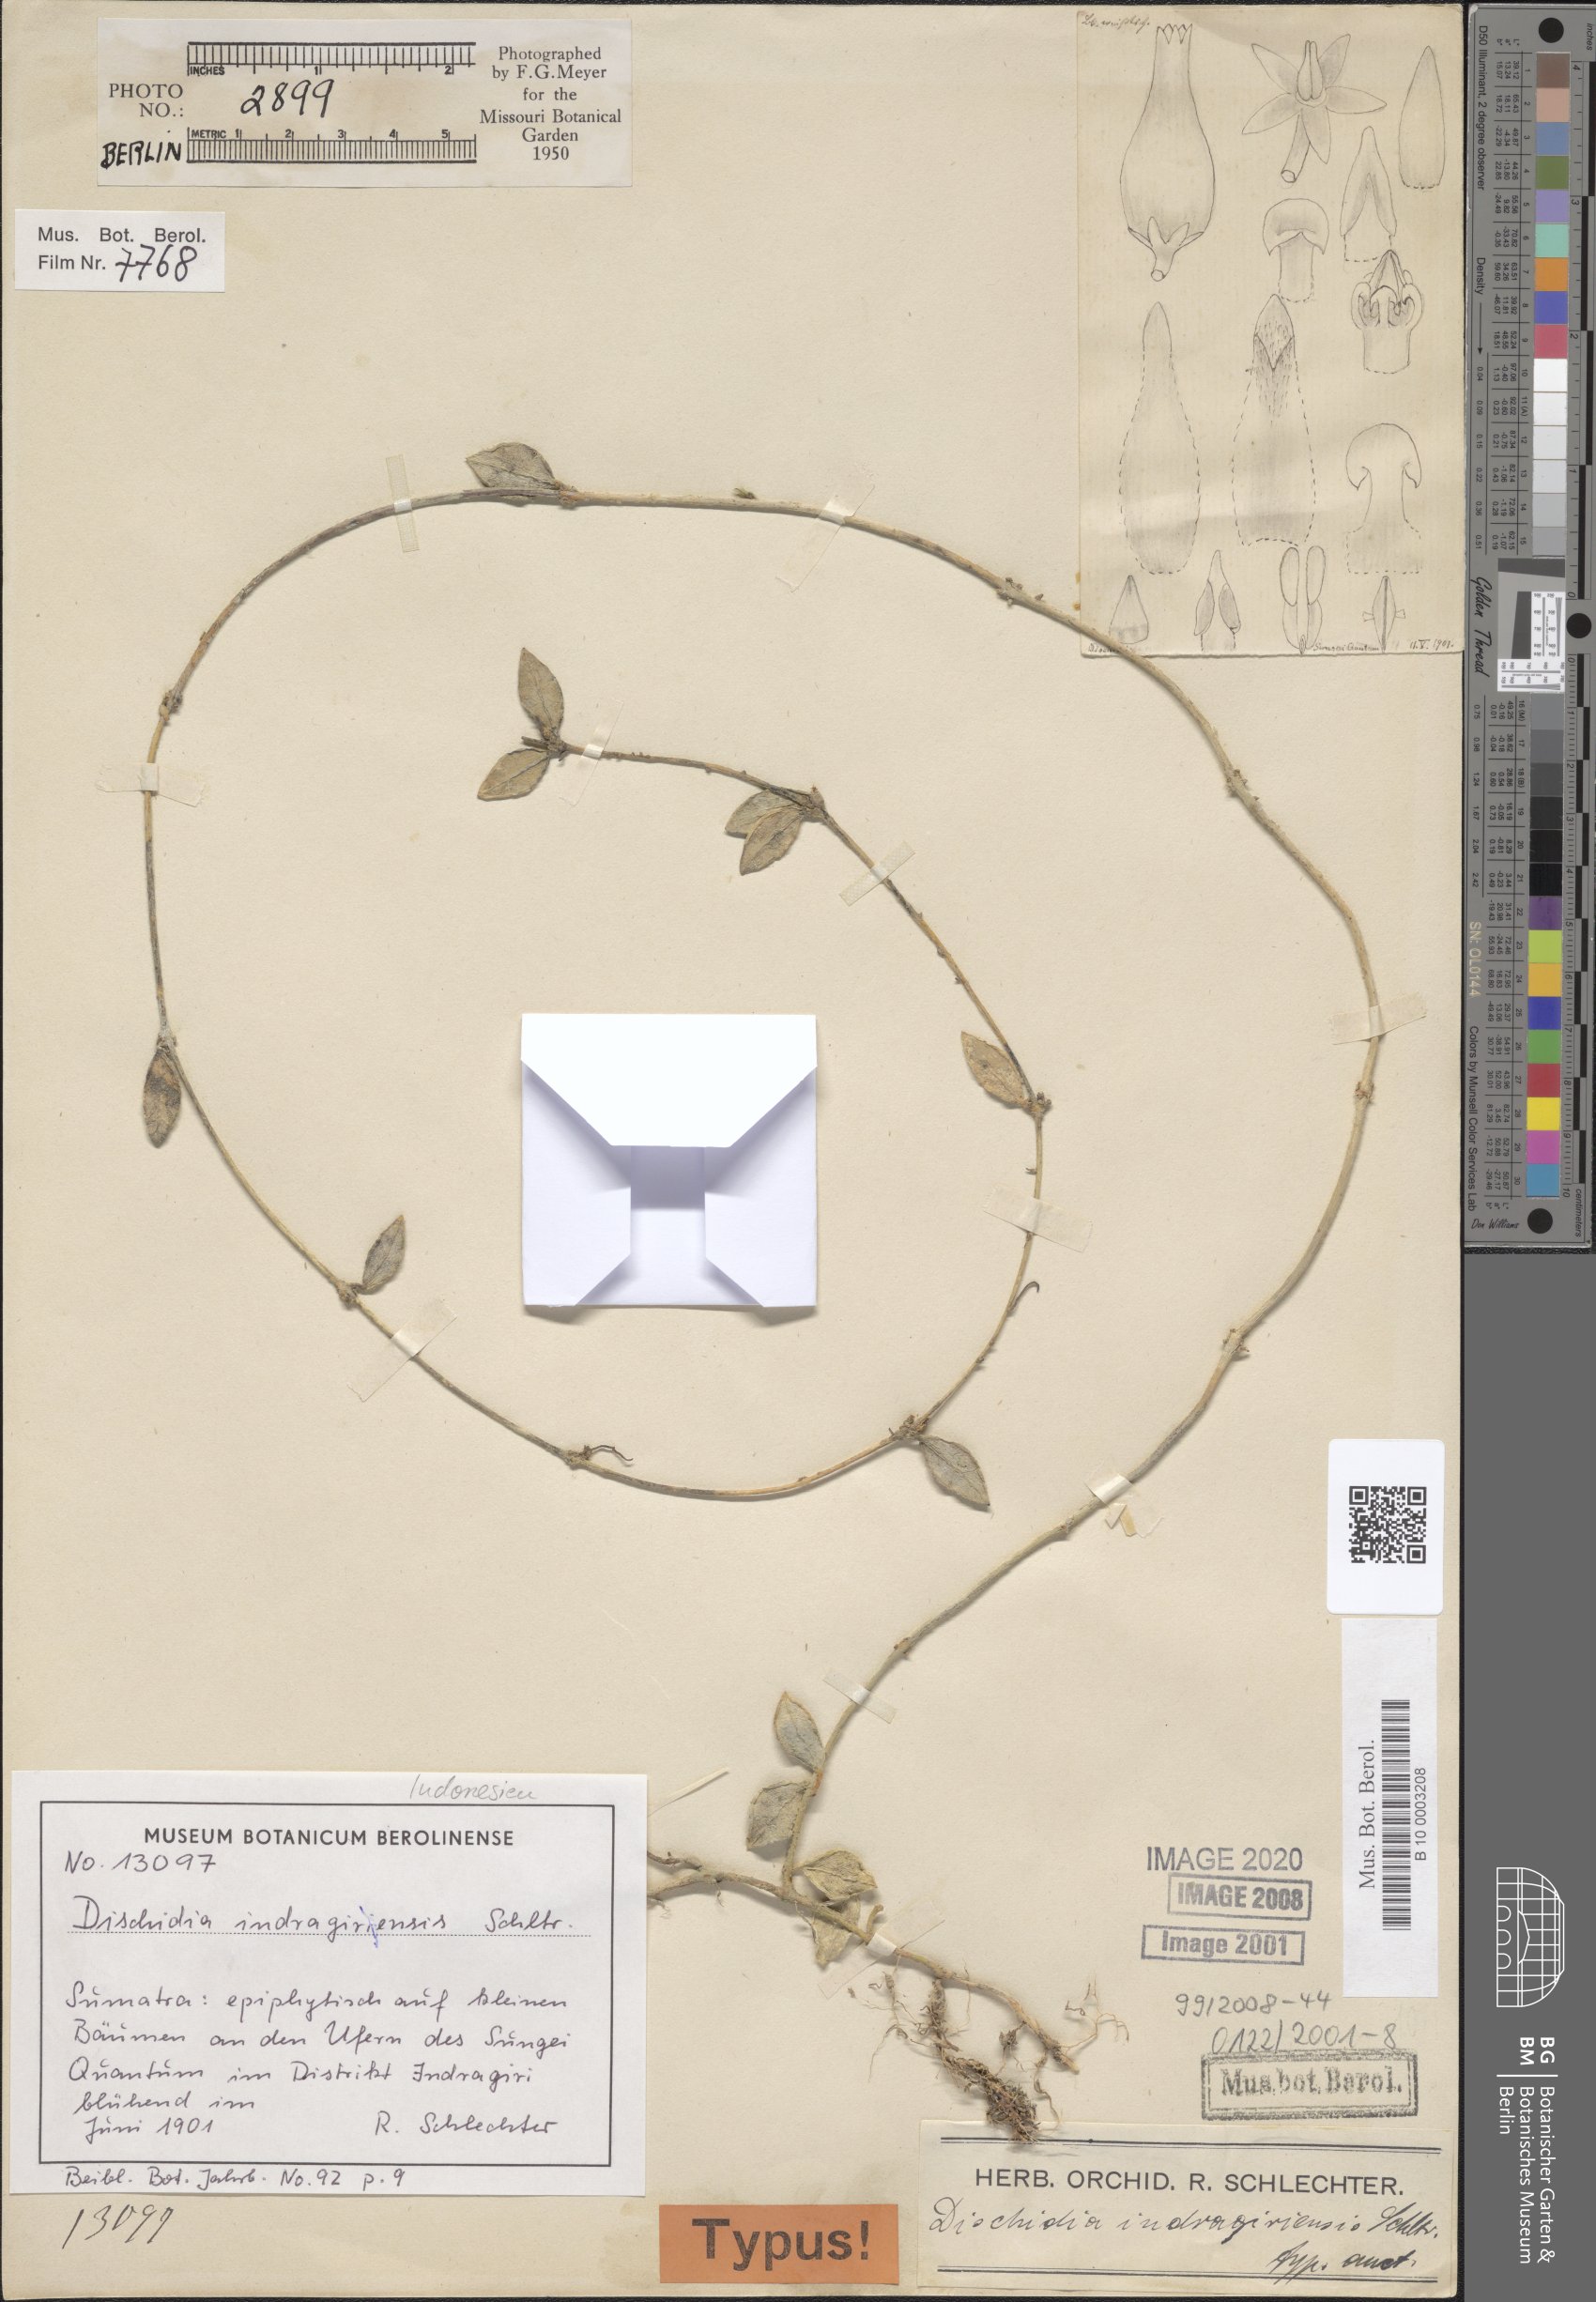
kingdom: Plantae
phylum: Tracheophyta
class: Magnoliopsida
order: Gentianales
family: Apocynaceae
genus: Dischidia
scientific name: Dischidia indragirensis
